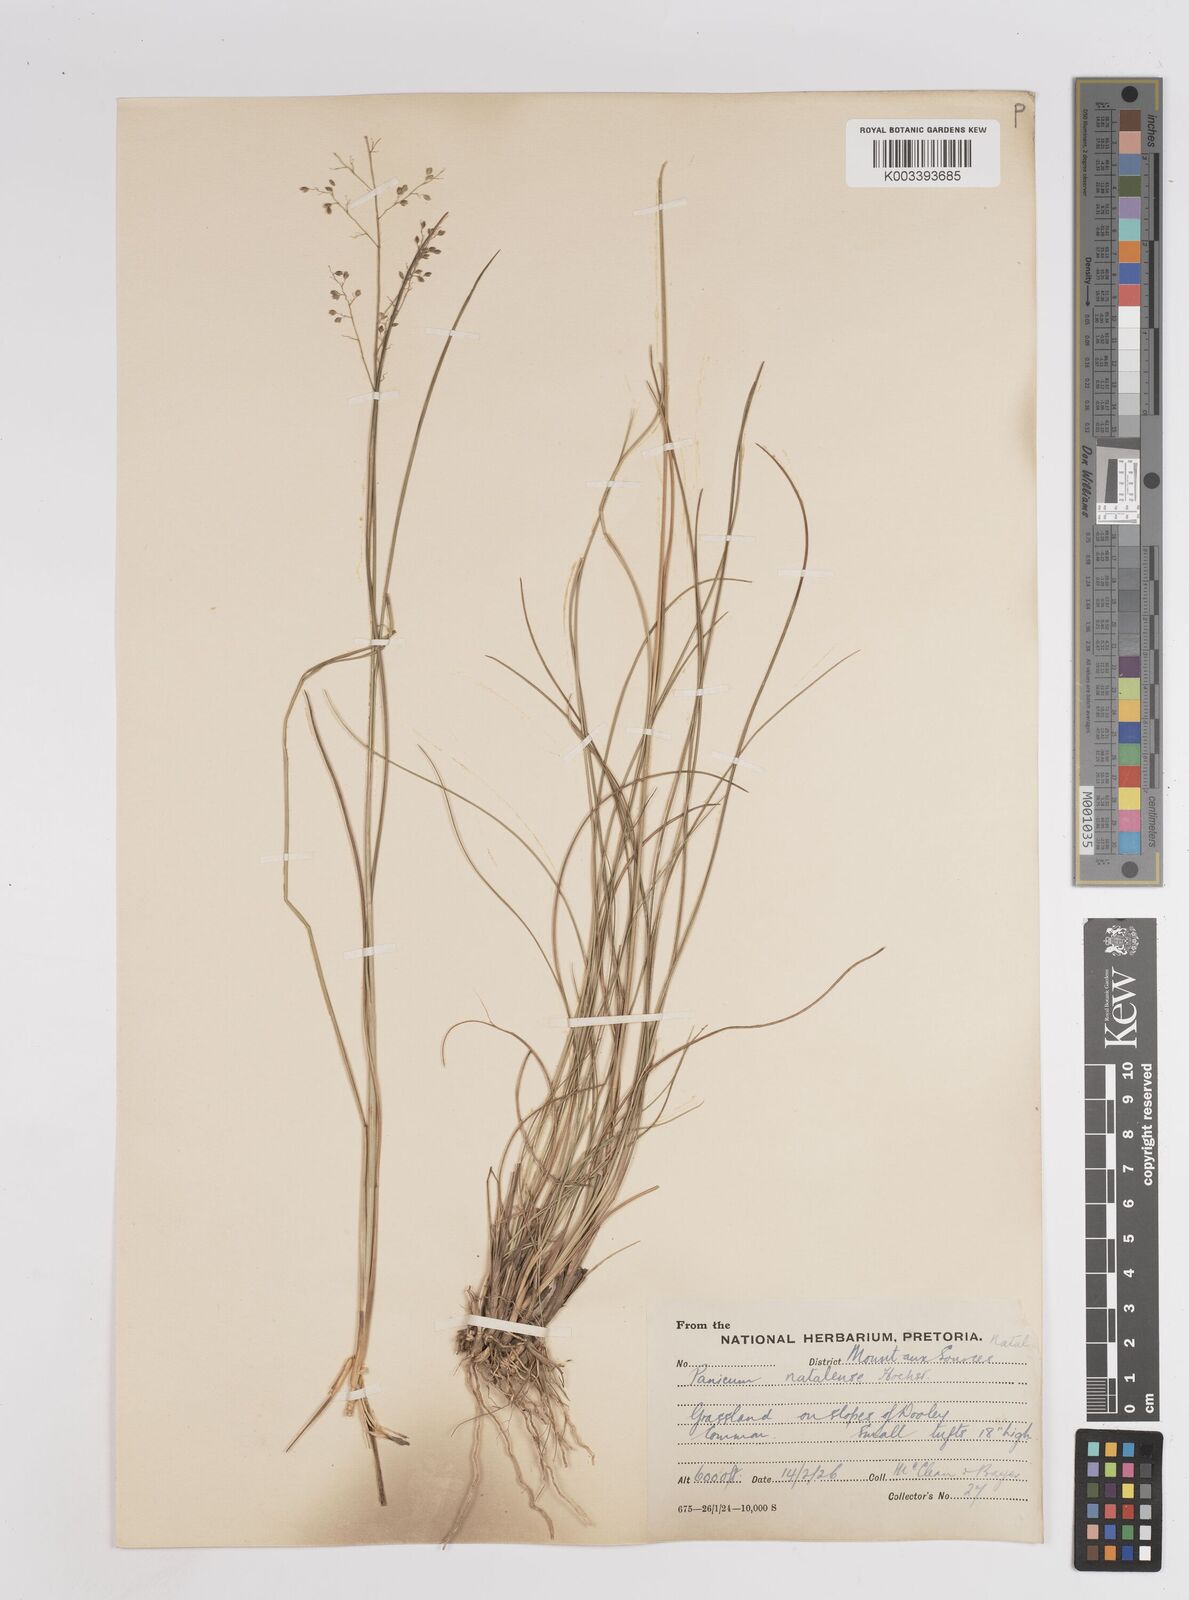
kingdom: Plantae
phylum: Tracheophyta
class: Liliopsida
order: Poales
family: Poaceae
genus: Trichanthecium
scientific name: Trichanthecium natalense
